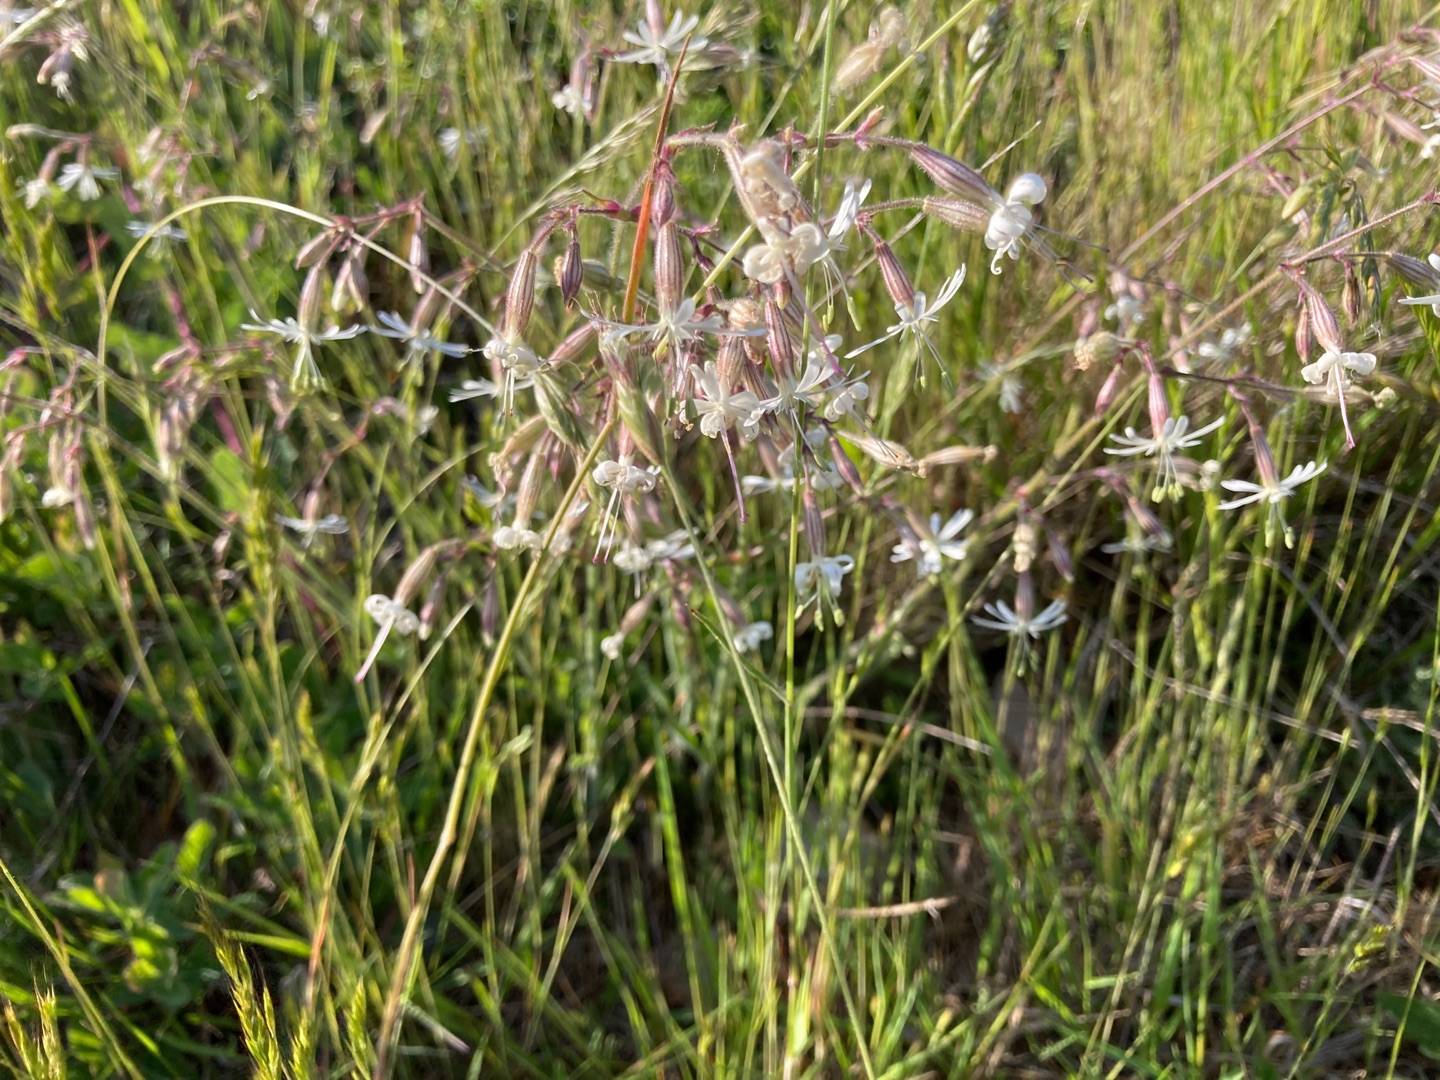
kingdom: Plantae
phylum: Tracheophyta
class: Magnoliopsida
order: Caryophyllales
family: Caryophyllaceae
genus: Silene
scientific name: Silene nutans
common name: Nikkende limurt
